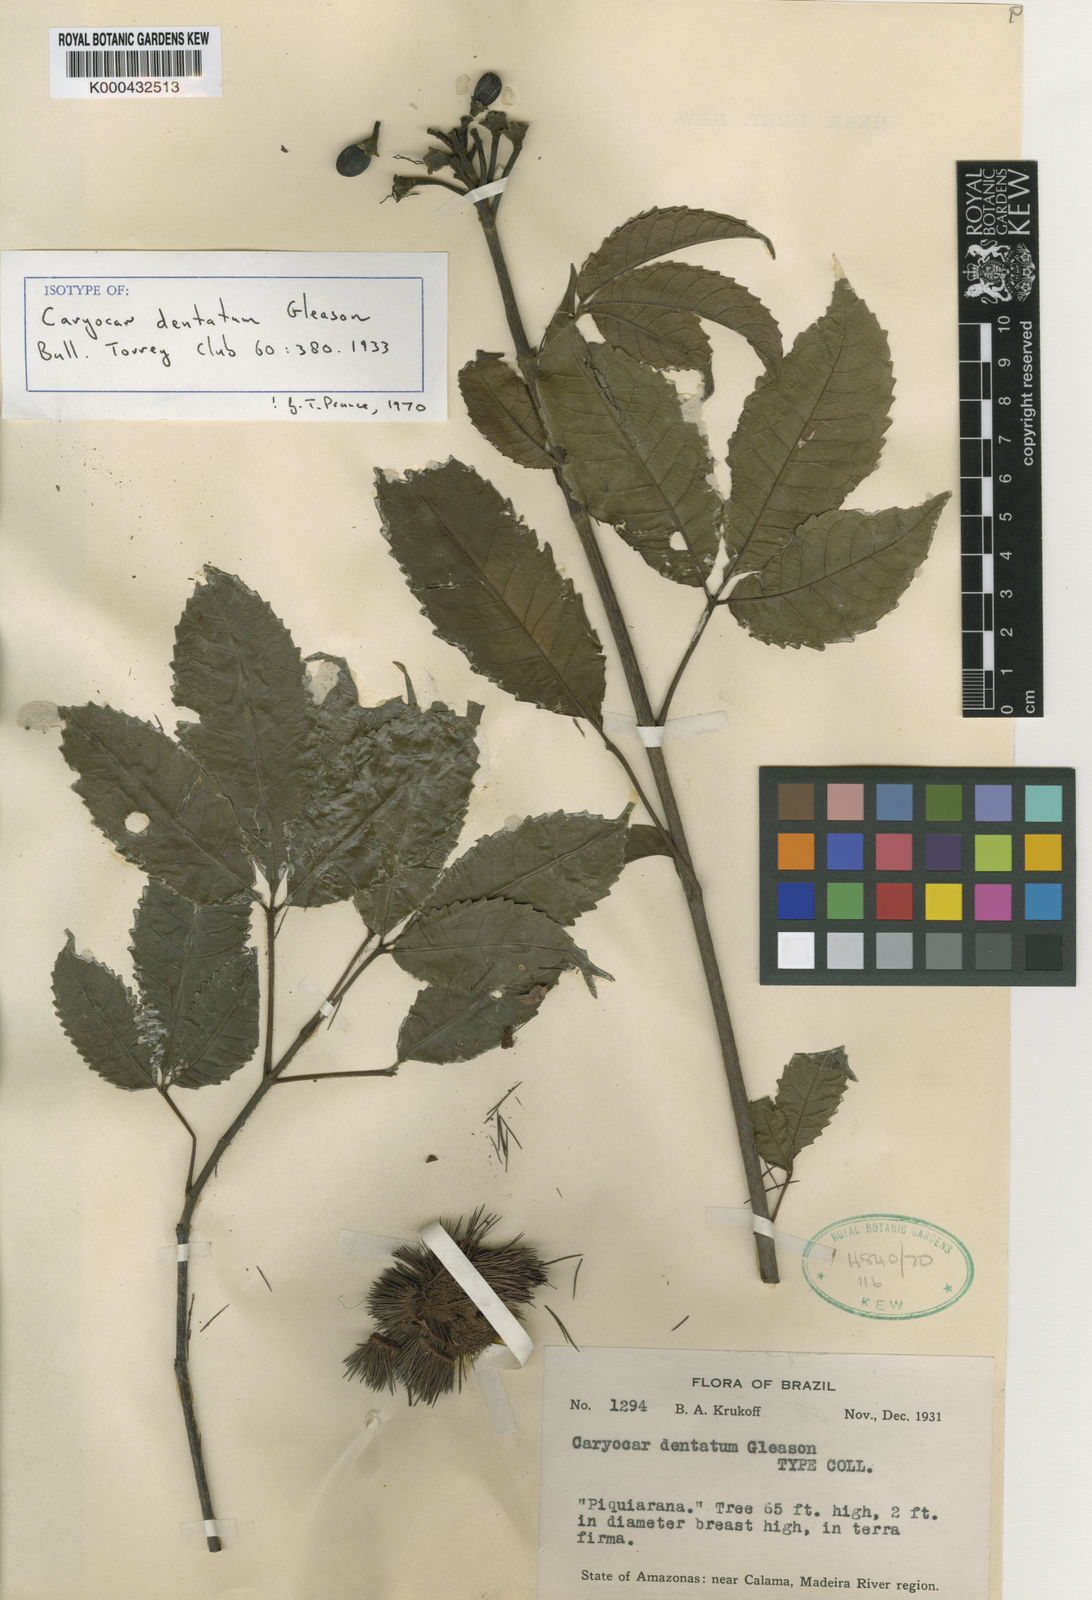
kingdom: Plantae
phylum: Tracheophyta
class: Magnoliopsida
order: Malpighiales
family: Caryocaraceae
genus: Caryocar
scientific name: Caryocar dentatum
